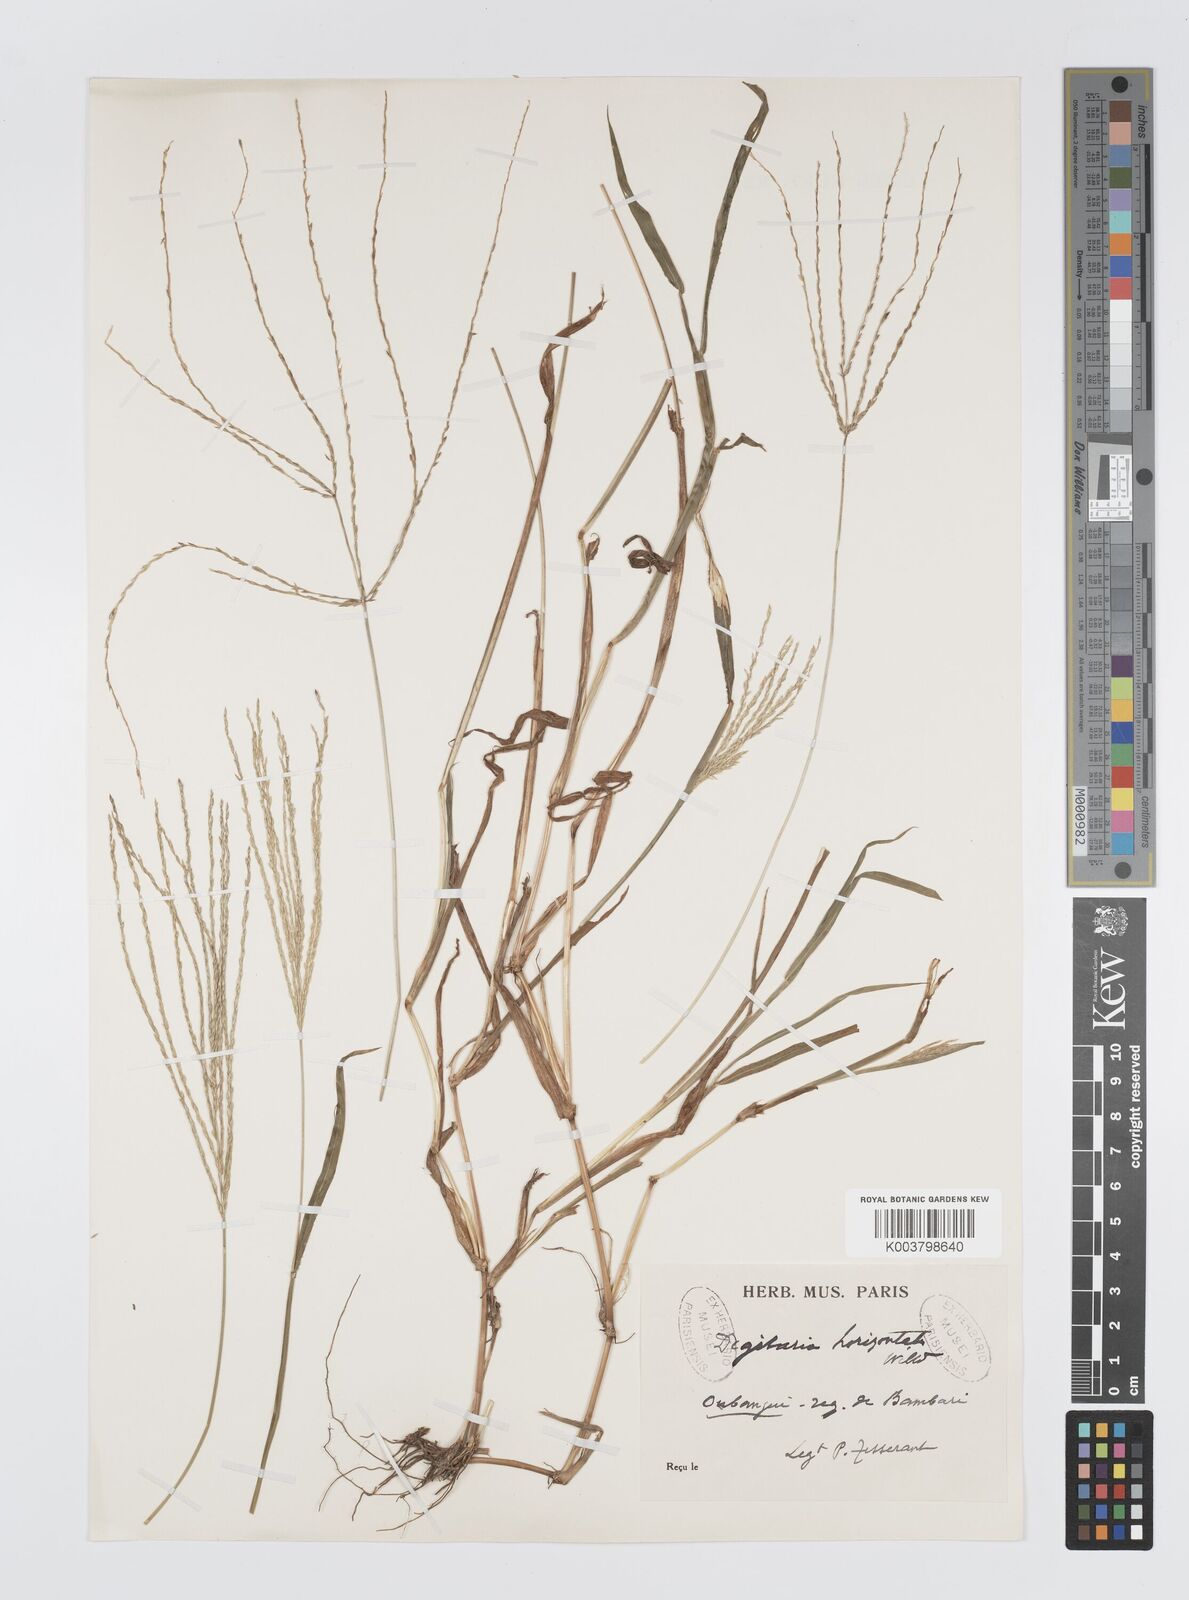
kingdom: Plantae
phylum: Tracheophyta
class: Liliopsida
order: Poales
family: Poaceae
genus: Digitaria
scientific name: Digitaria horizontalis
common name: Jamaican crabgrass
